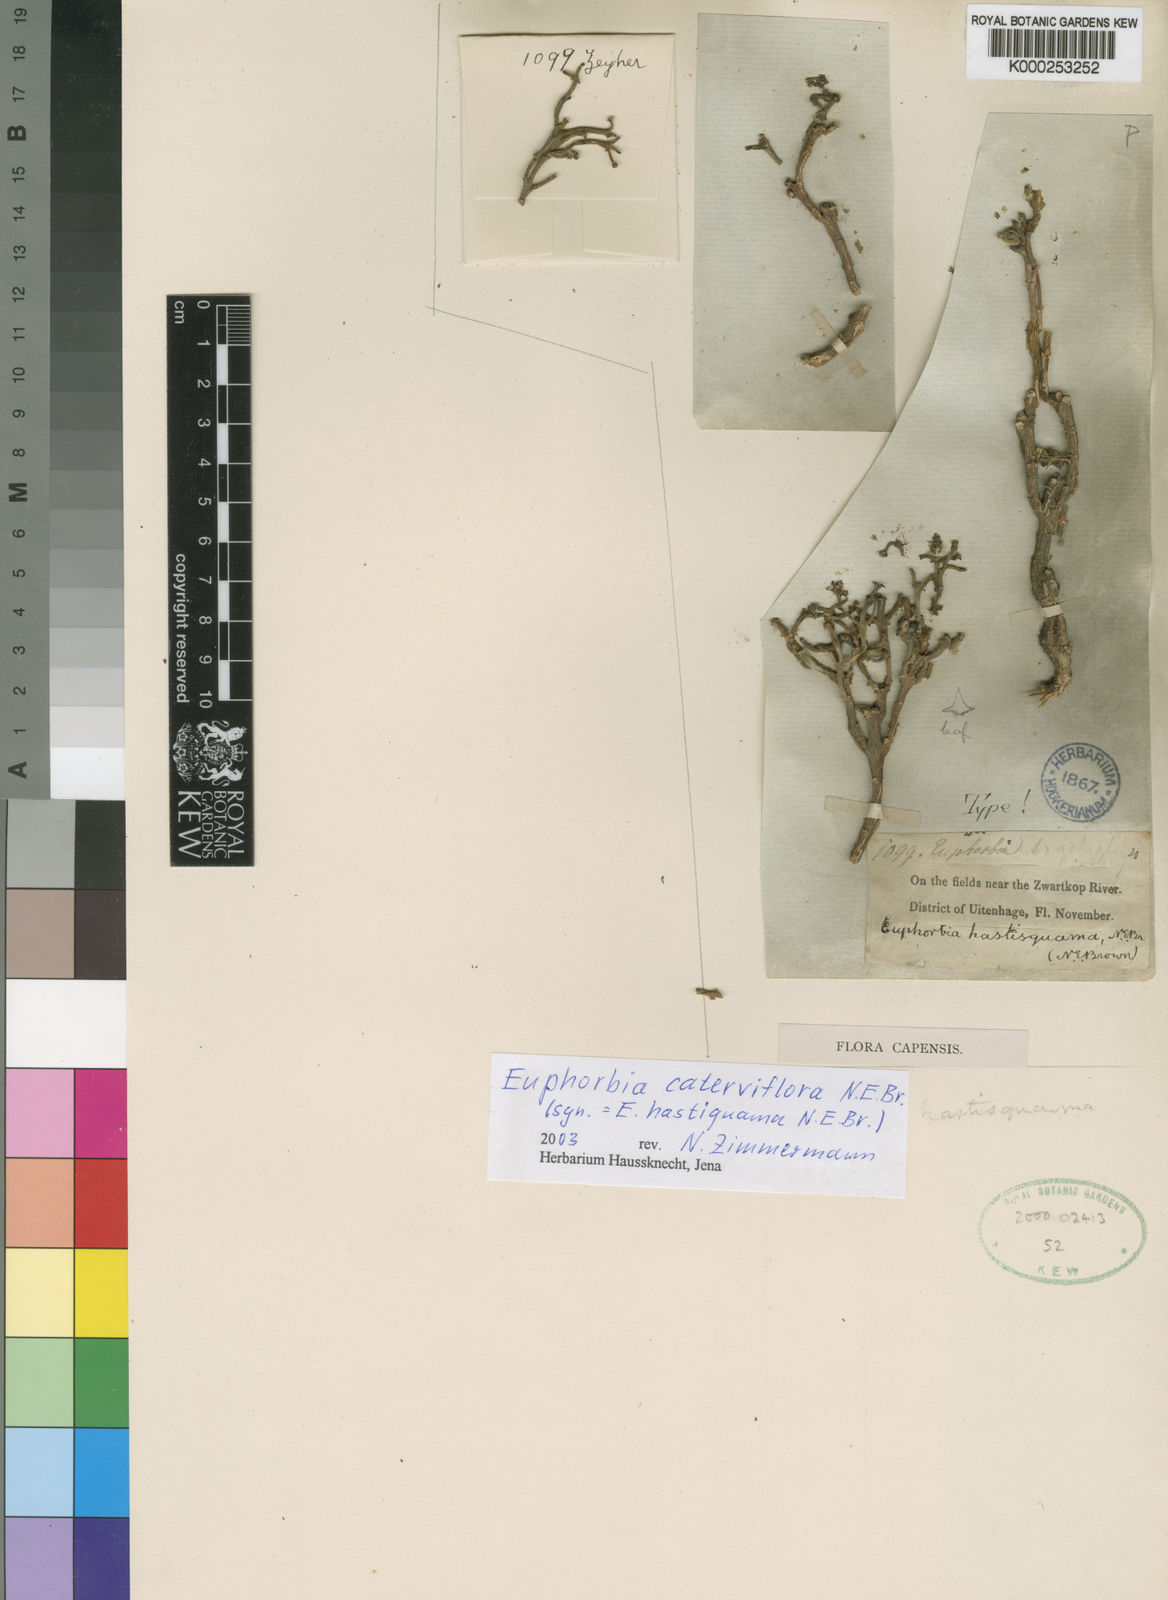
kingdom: Plantae
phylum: Tracheophyta
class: Magnoliopsida
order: Malpighiales
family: Euphorbiaceae
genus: Euphorbia
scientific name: Euphorbia rhombifolia
